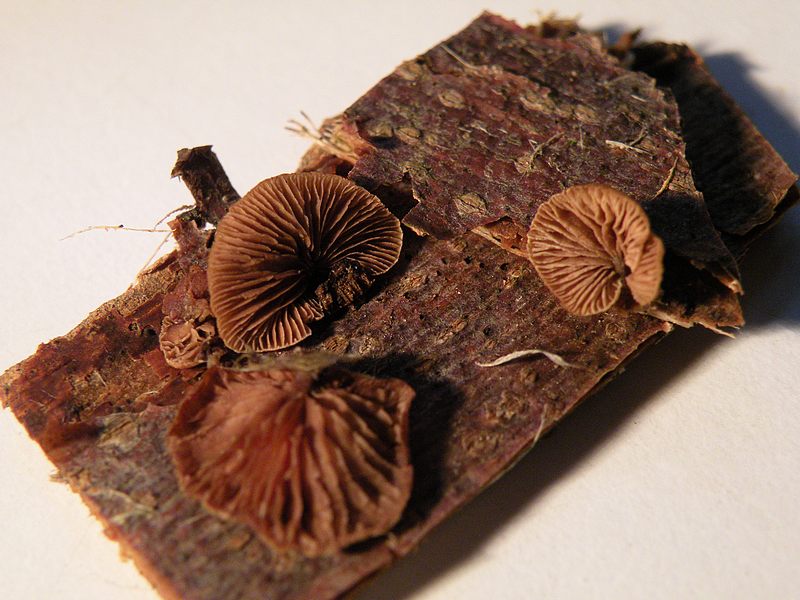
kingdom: Fungi
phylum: Basidiomycota
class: Agaricomycetes
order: Agaricales
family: Strophariaceae
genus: Deconica
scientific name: Deconica horizontalis
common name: ved-stråhat
